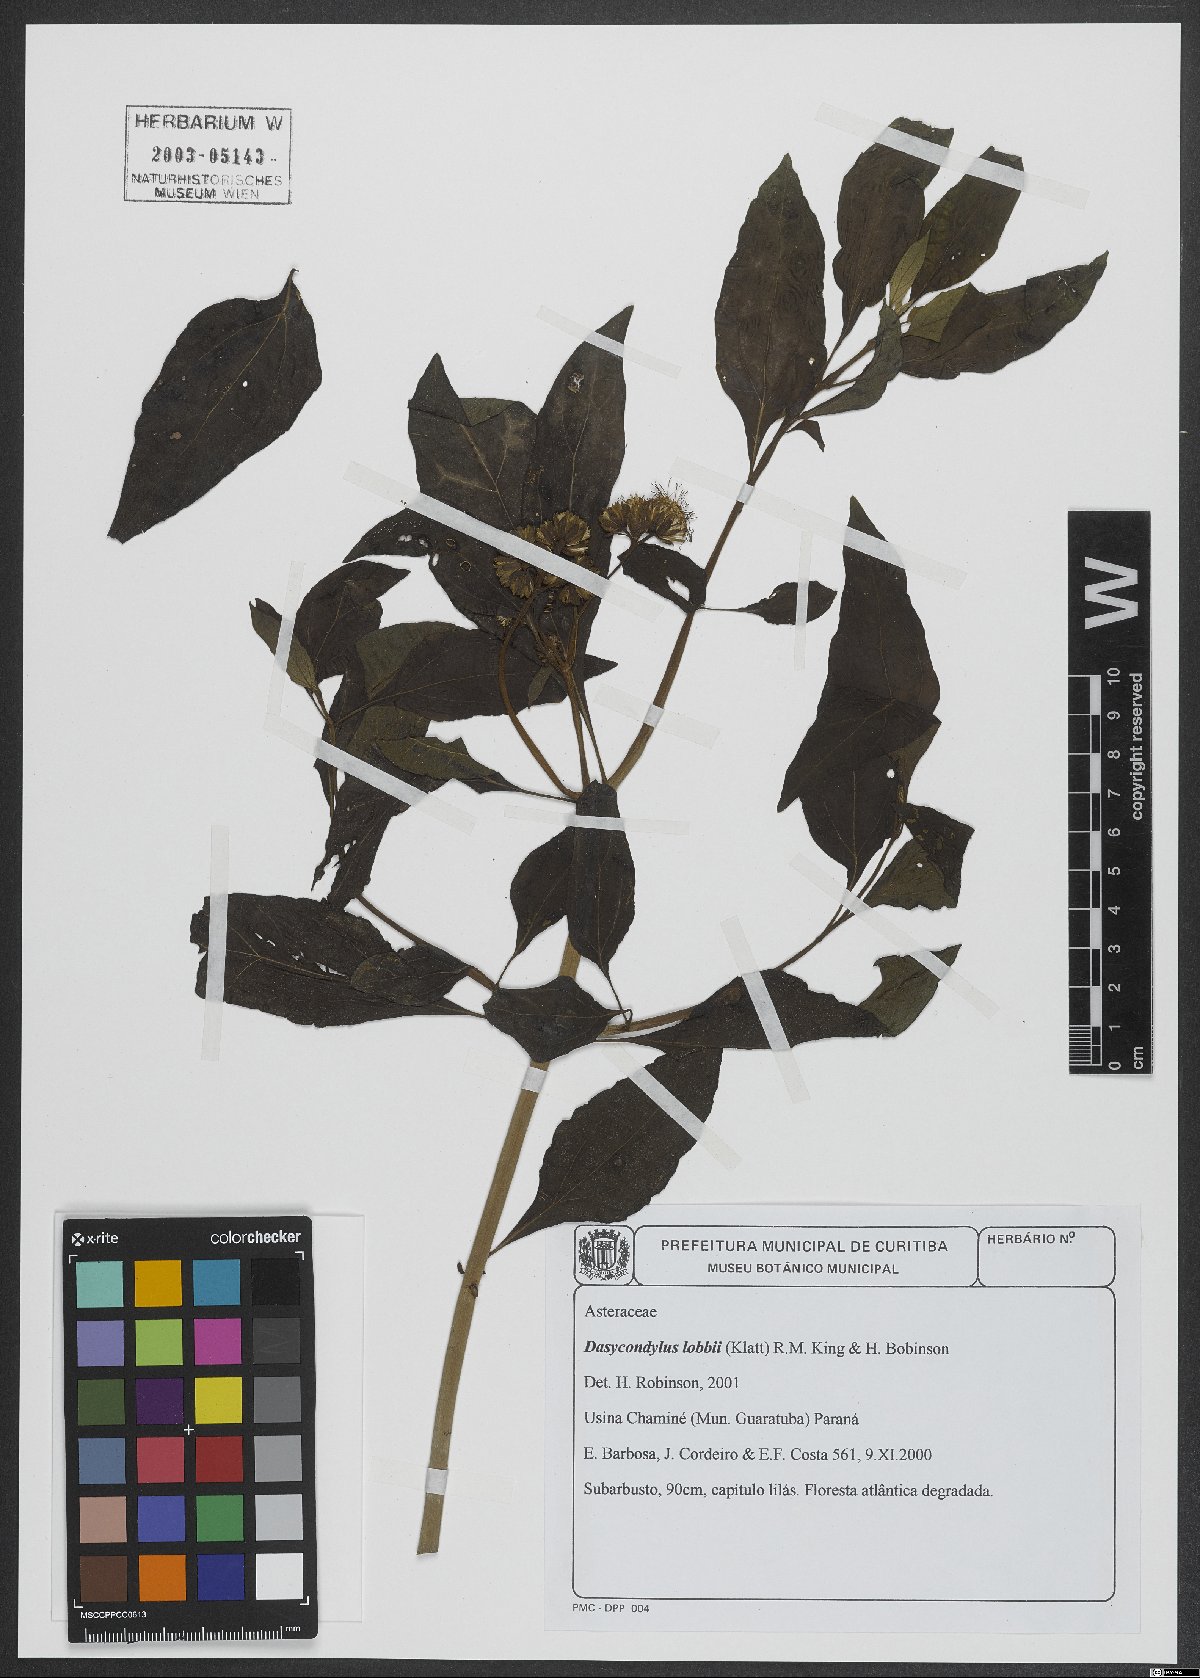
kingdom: Plantae
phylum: Tracheophyta
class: Magnoliopsida
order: Asterales
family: Asteraceae
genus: Dasycondylus
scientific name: Dasycondylus lobbii
